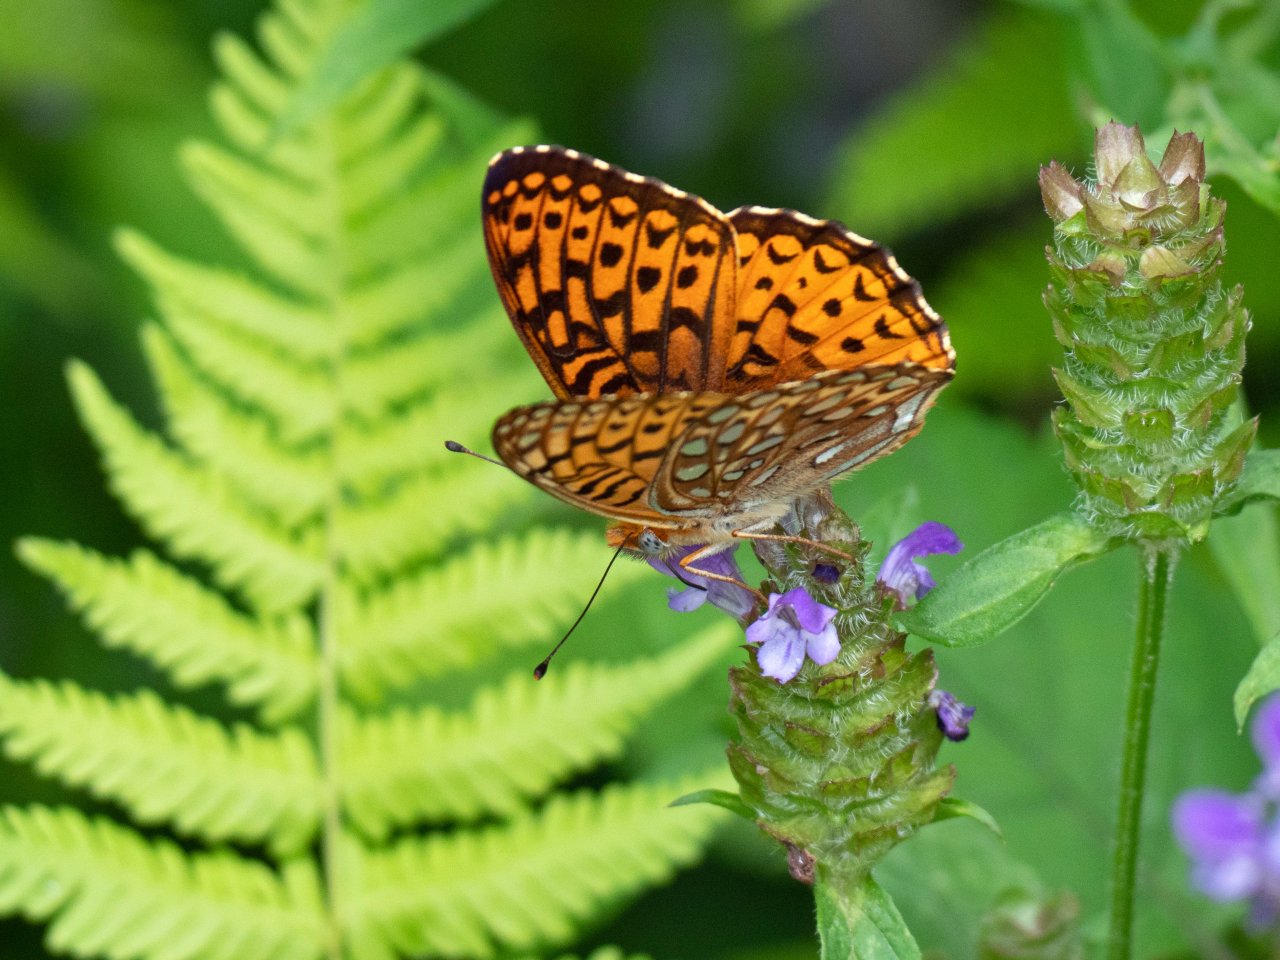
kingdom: Animalia
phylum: Arthropoda
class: Insecta
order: Lepidoptera
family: Nymphalidae
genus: Speyeria
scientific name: Speyeria atlantis
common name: Atlantis Fritillary
